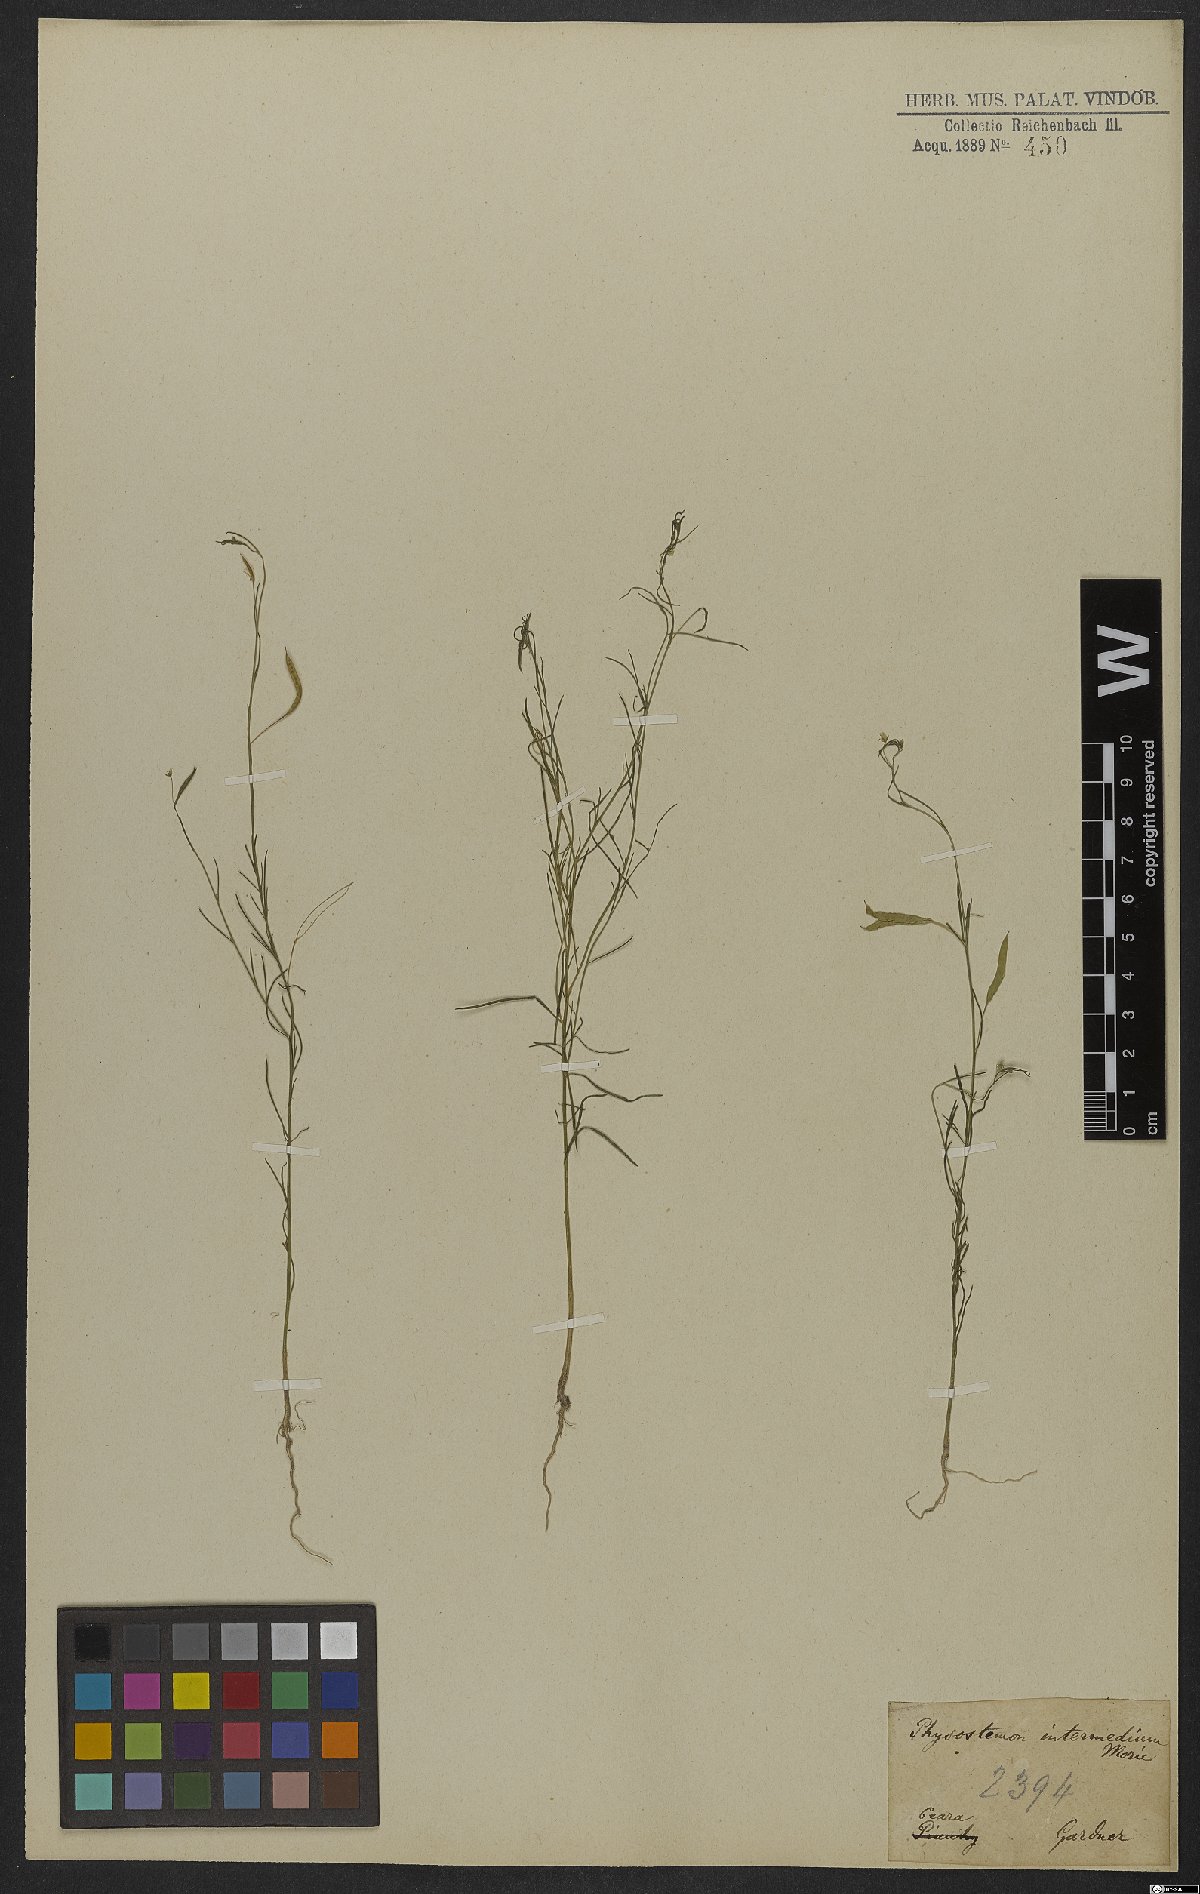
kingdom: Plantae
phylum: Tracheophyta
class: Magnoliopsida
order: Brassicales
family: Cleomaceae
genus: Andinocleome
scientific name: Andinocleome anomala
